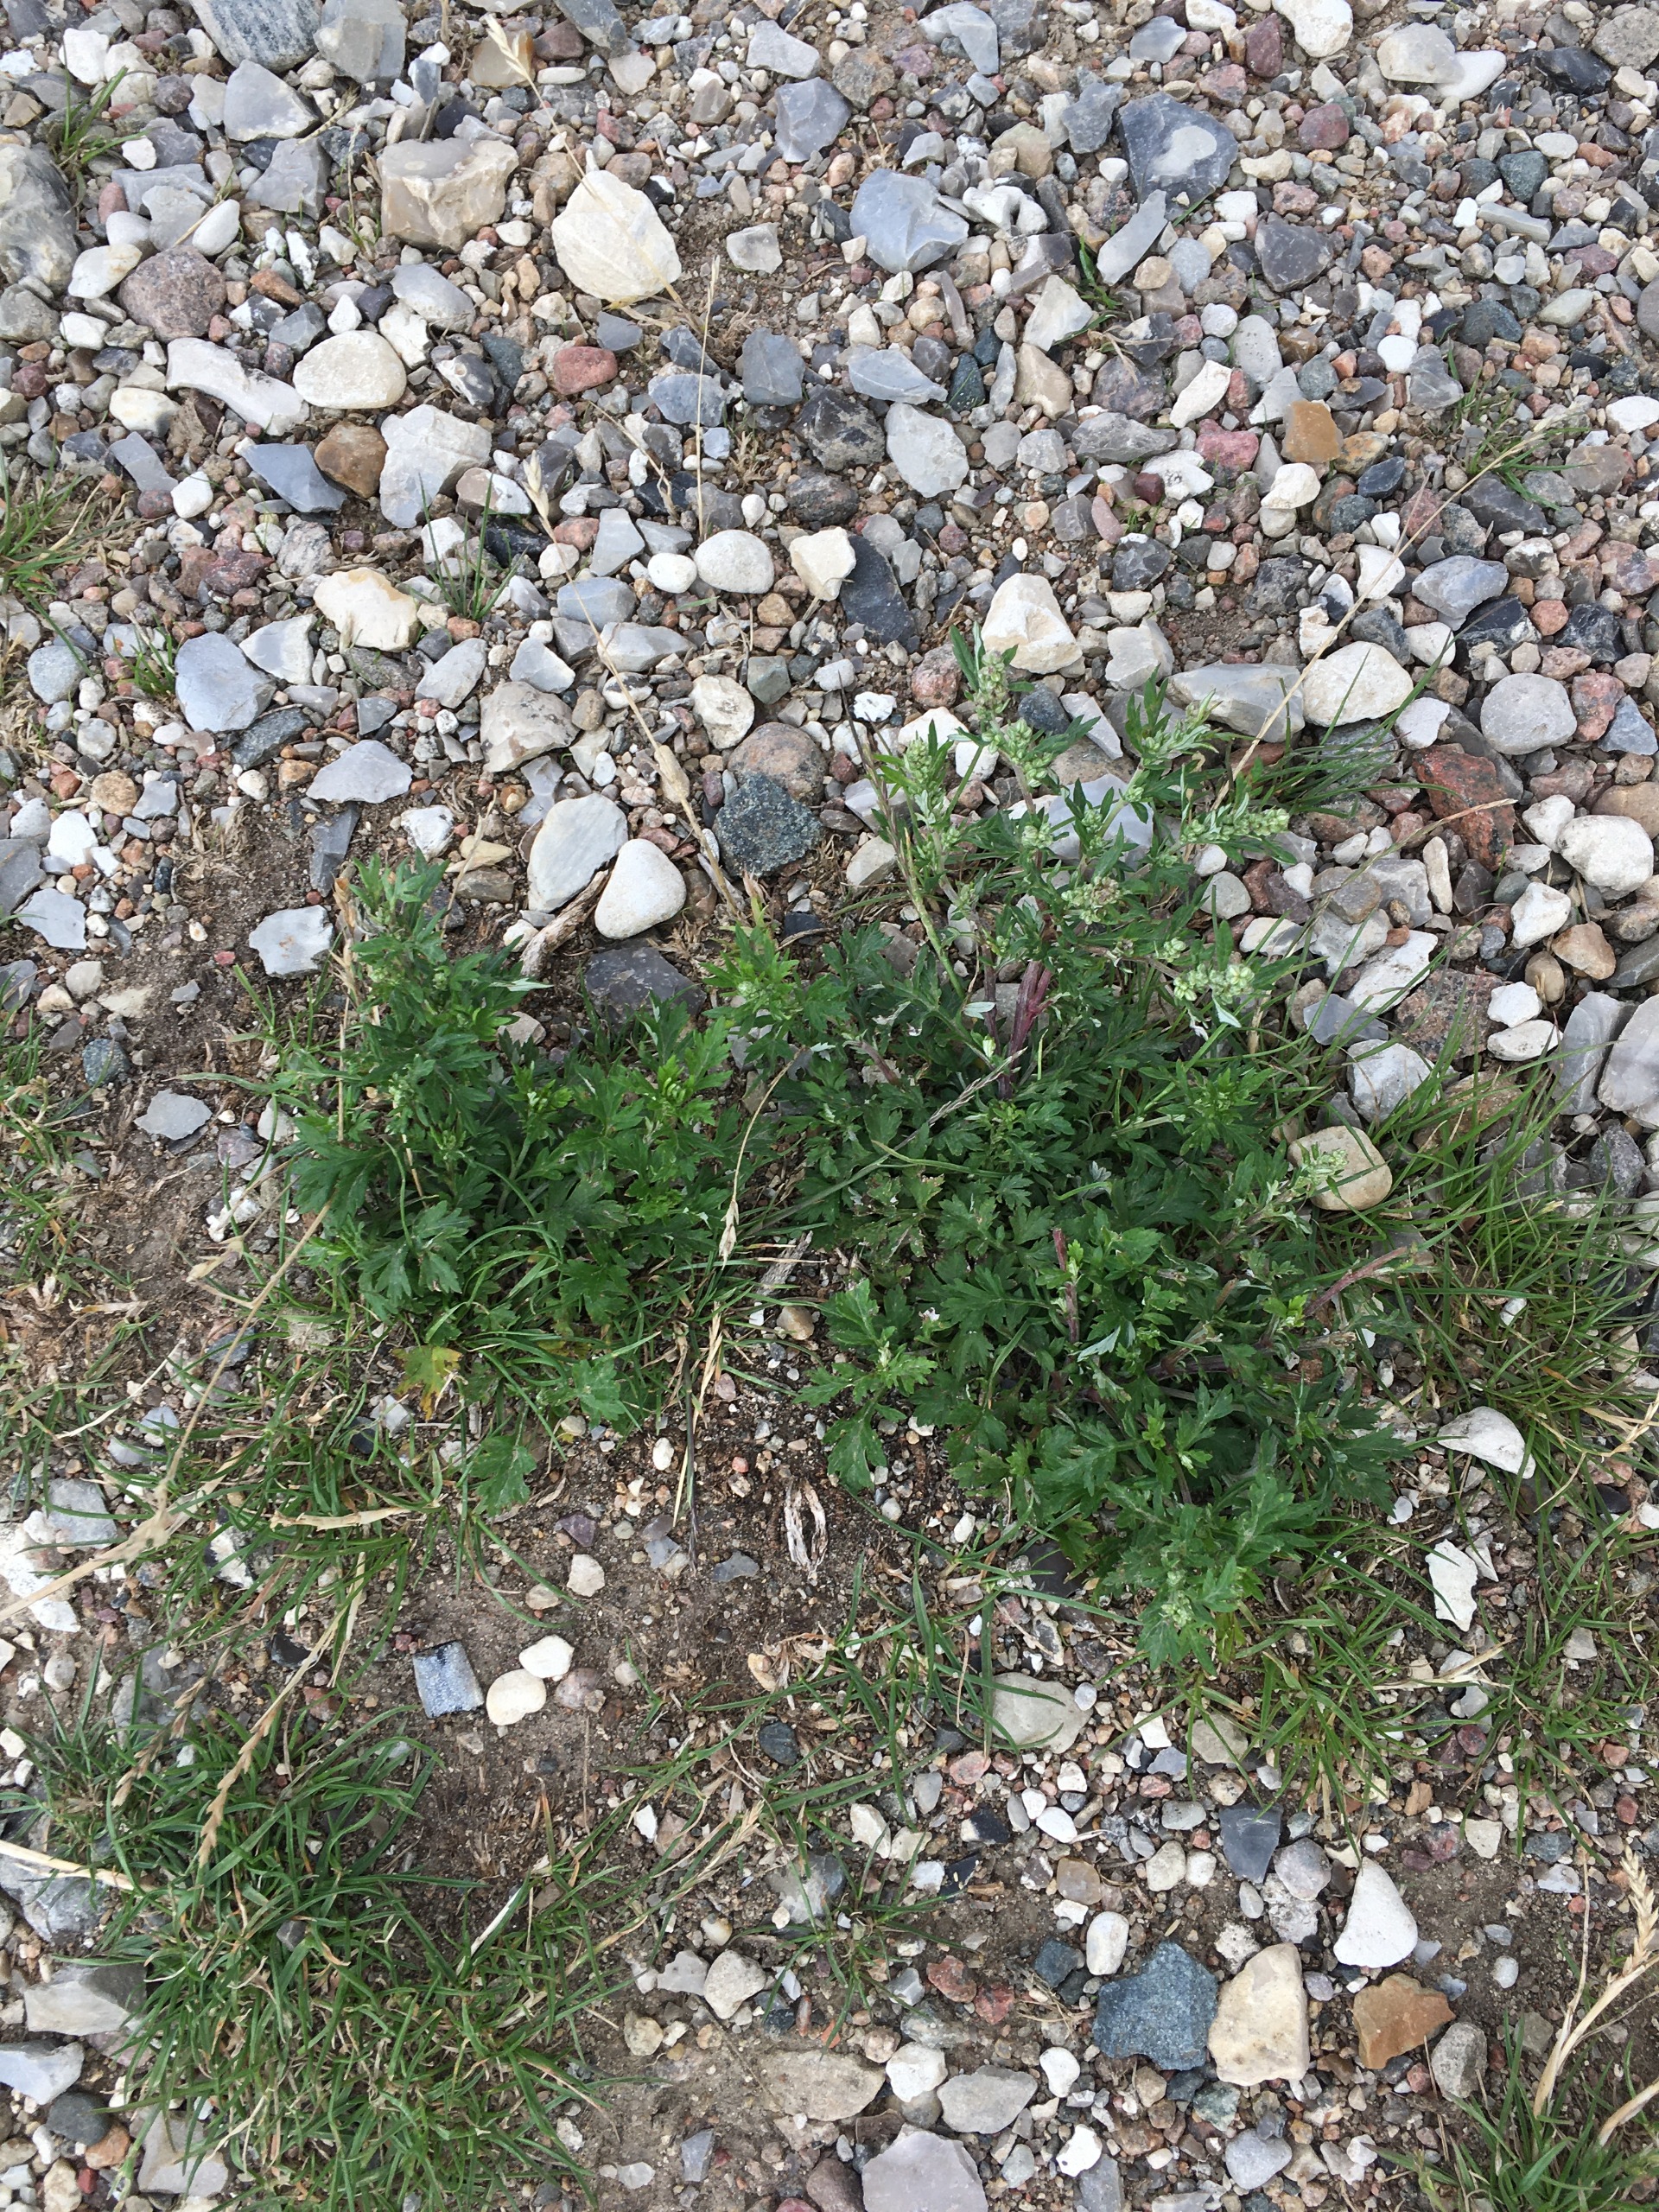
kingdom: Plantae
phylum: Tracheophyta
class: Magnoliopsida
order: Asterales
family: Asteraceae
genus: Artemisia
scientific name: Artemisia vulgaris
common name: Grå-bynke
